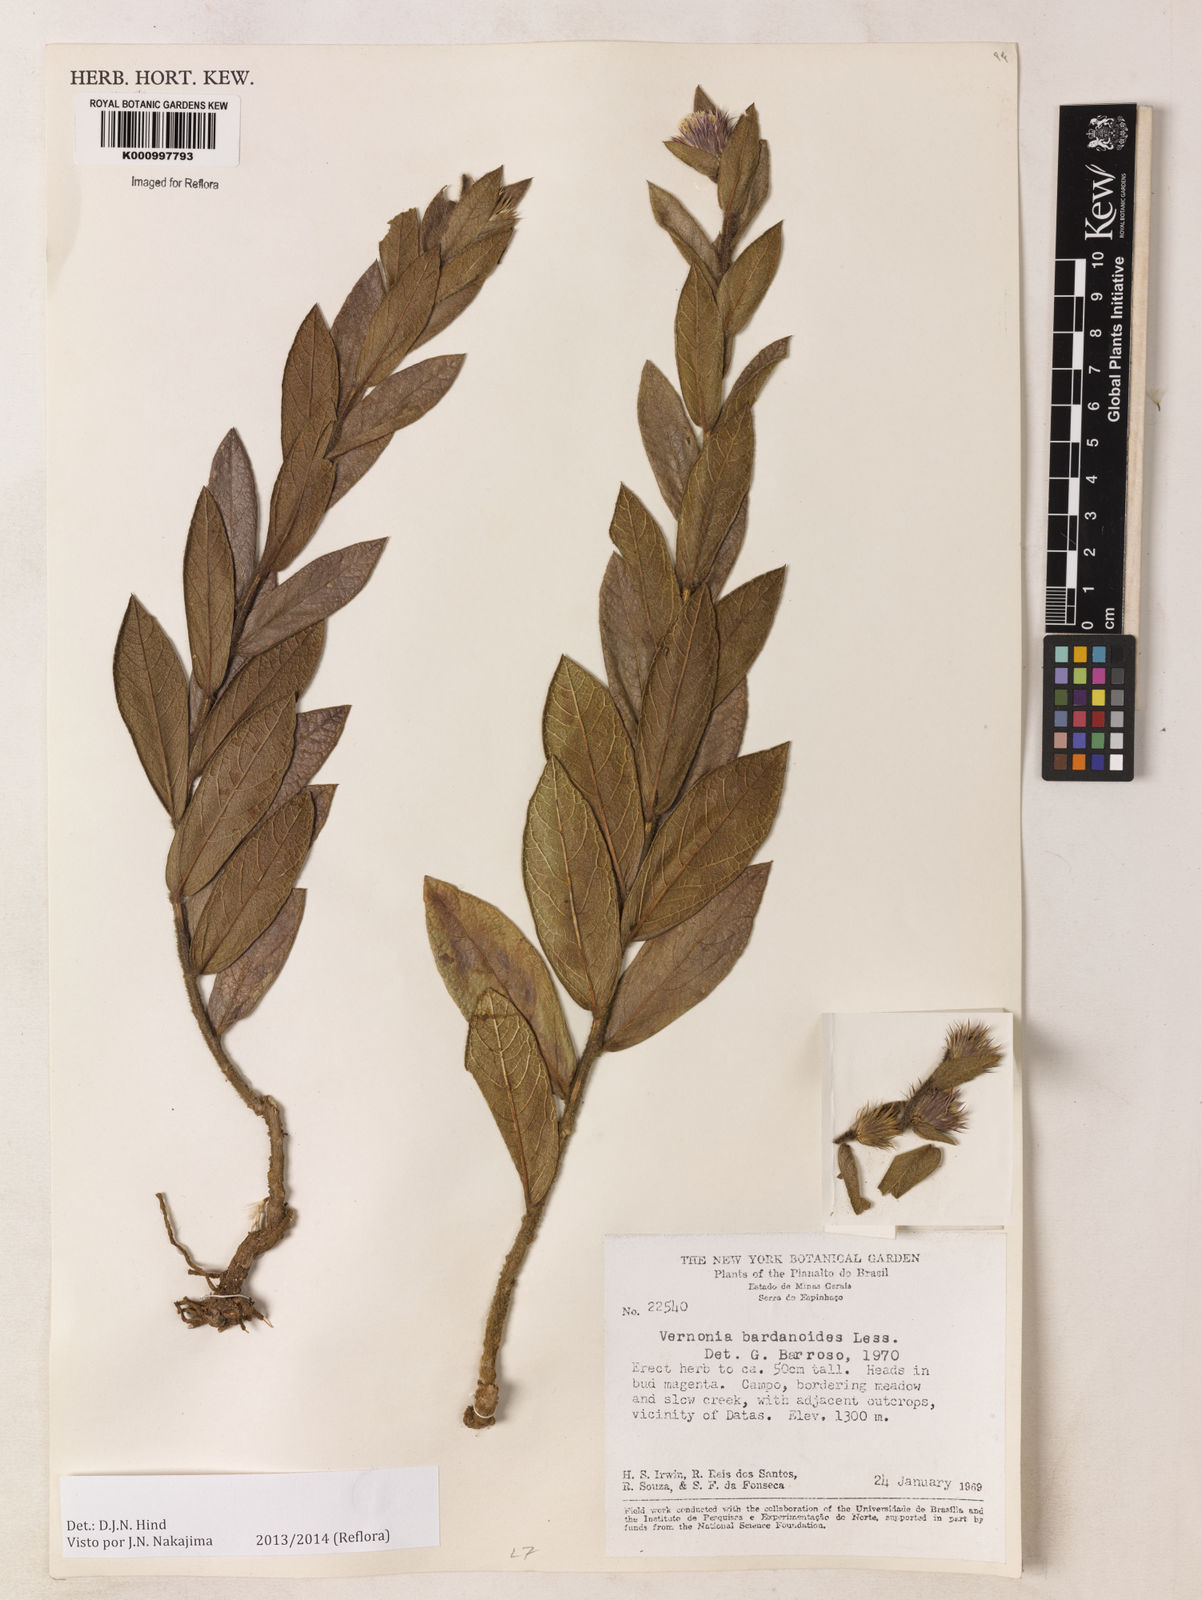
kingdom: Plantae
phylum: Tracheophyta
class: Magnoliopsida
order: Asterales
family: Asteraceae
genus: Lessingianthus
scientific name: Lessingianthus bardanioides
